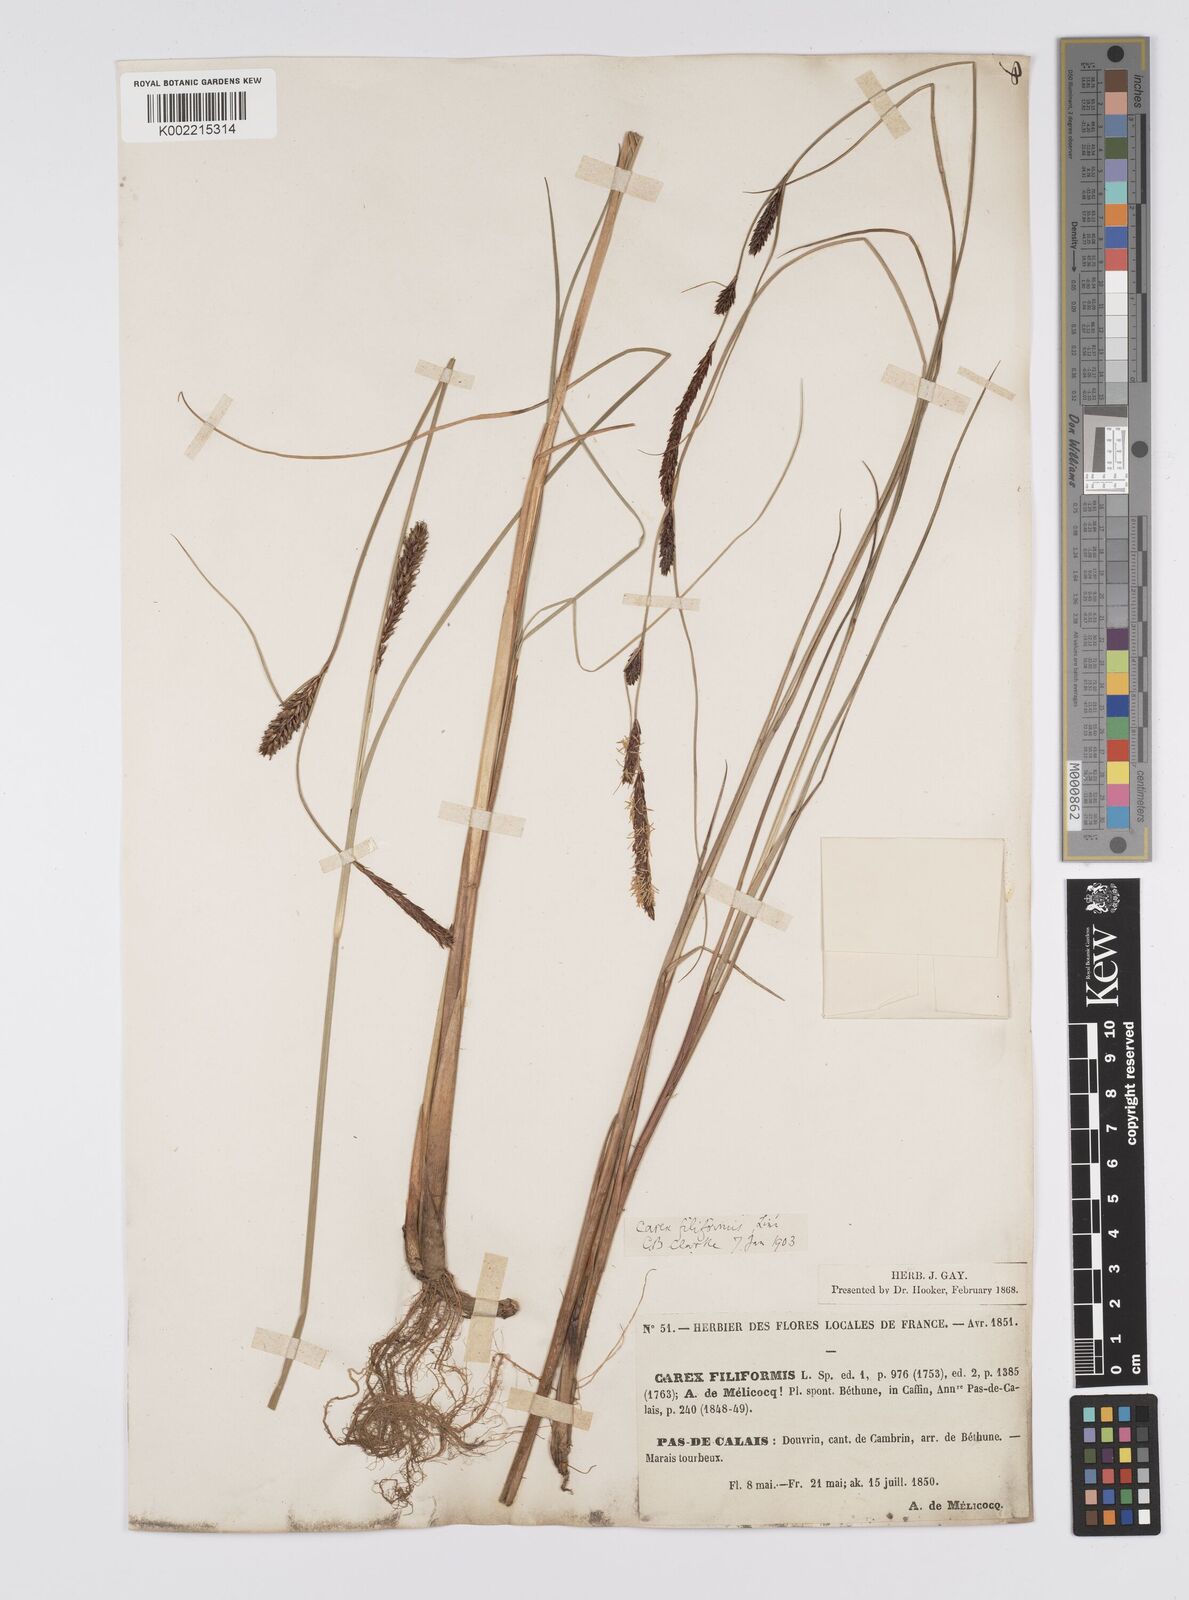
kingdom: Plantae
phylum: Tracheophyta
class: Liliopsida
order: Poales
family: Cyperaceae
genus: Carex
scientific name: Carex lasiocarpa
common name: Slender sedge
